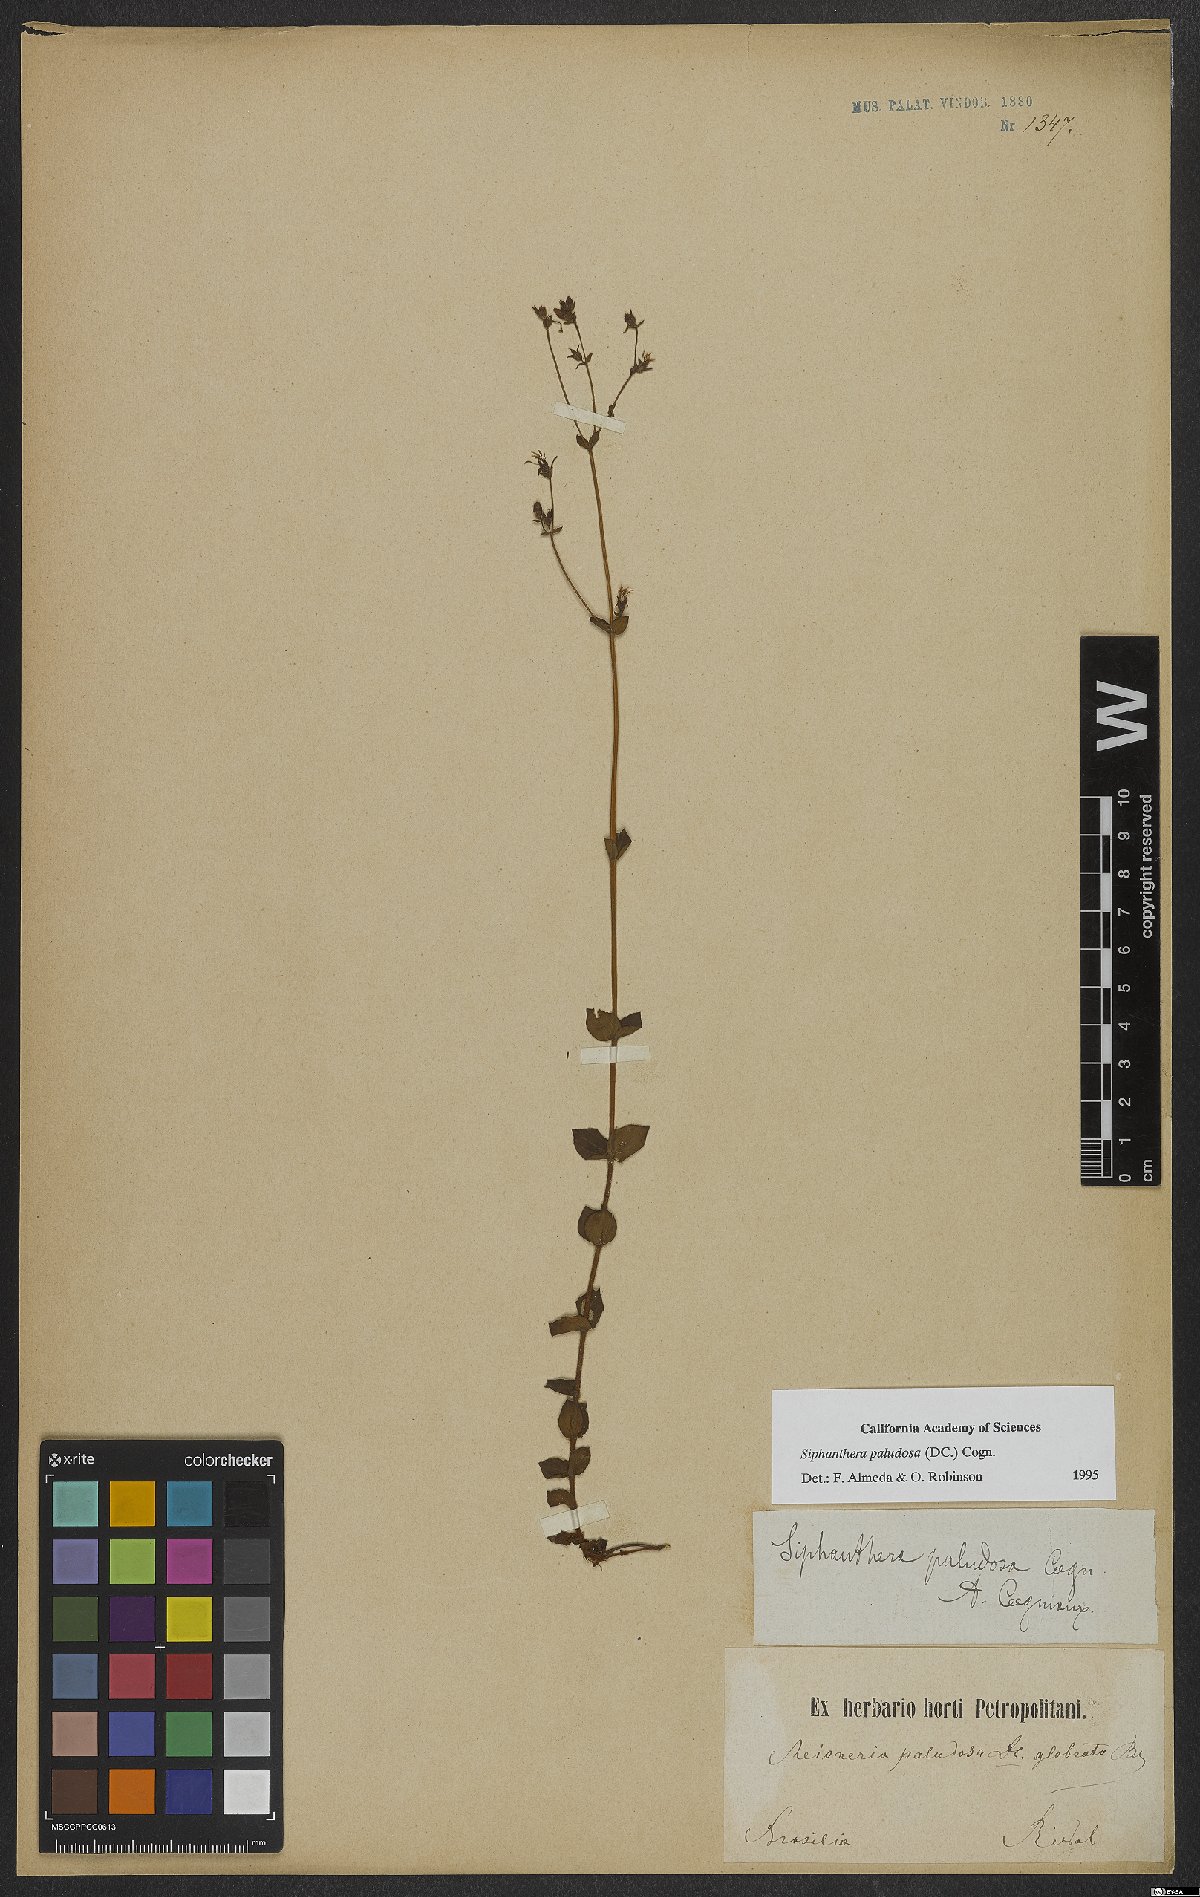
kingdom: Plantae
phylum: Tracheophyta
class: Magnoliopsida
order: Myrtales
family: Melastomataceae
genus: Siphanthera
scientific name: Siphanthera paludosa
